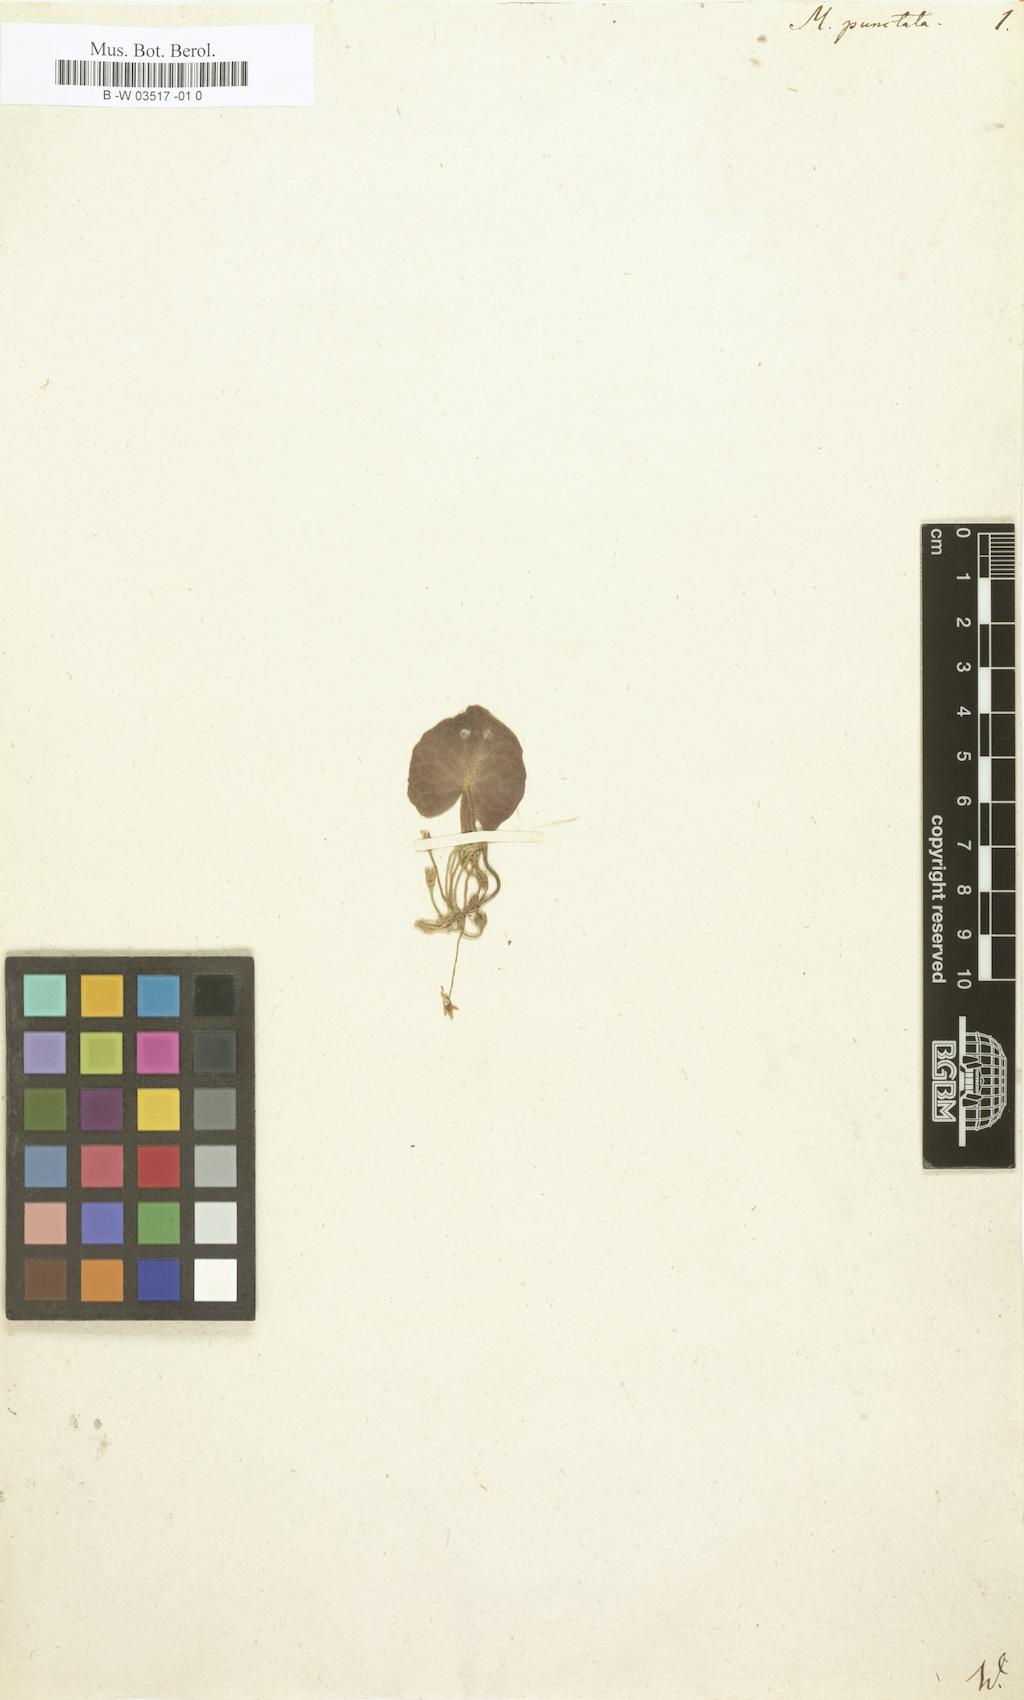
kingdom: Plantae
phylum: Tracheophyta
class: Magnoliopsida
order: Asterales
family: Menyanthaceae
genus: Nymphoides
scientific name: Nymphoides cordata
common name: Eight-angled floatingheart
